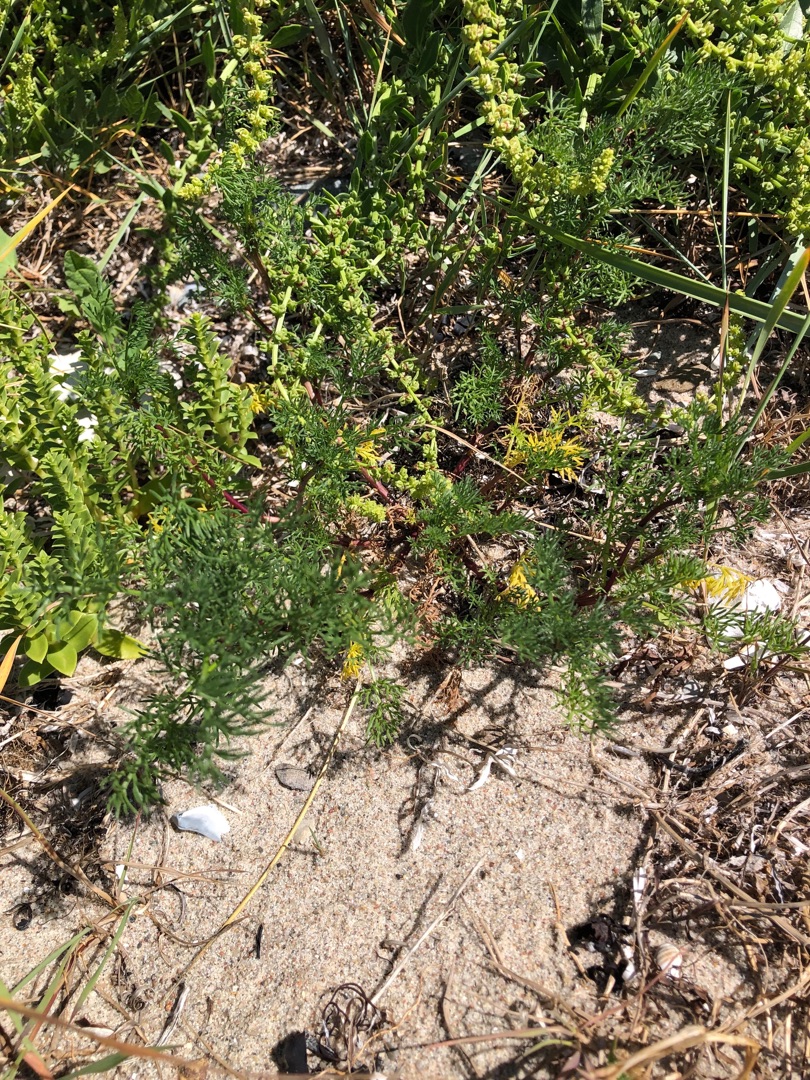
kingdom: Plantae
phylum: Tracheophyta
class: Magnoliopsida
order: Asterales
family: Asteraceae
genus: Artemisia
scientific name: Artemisia campestris
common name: Mark-bynke
